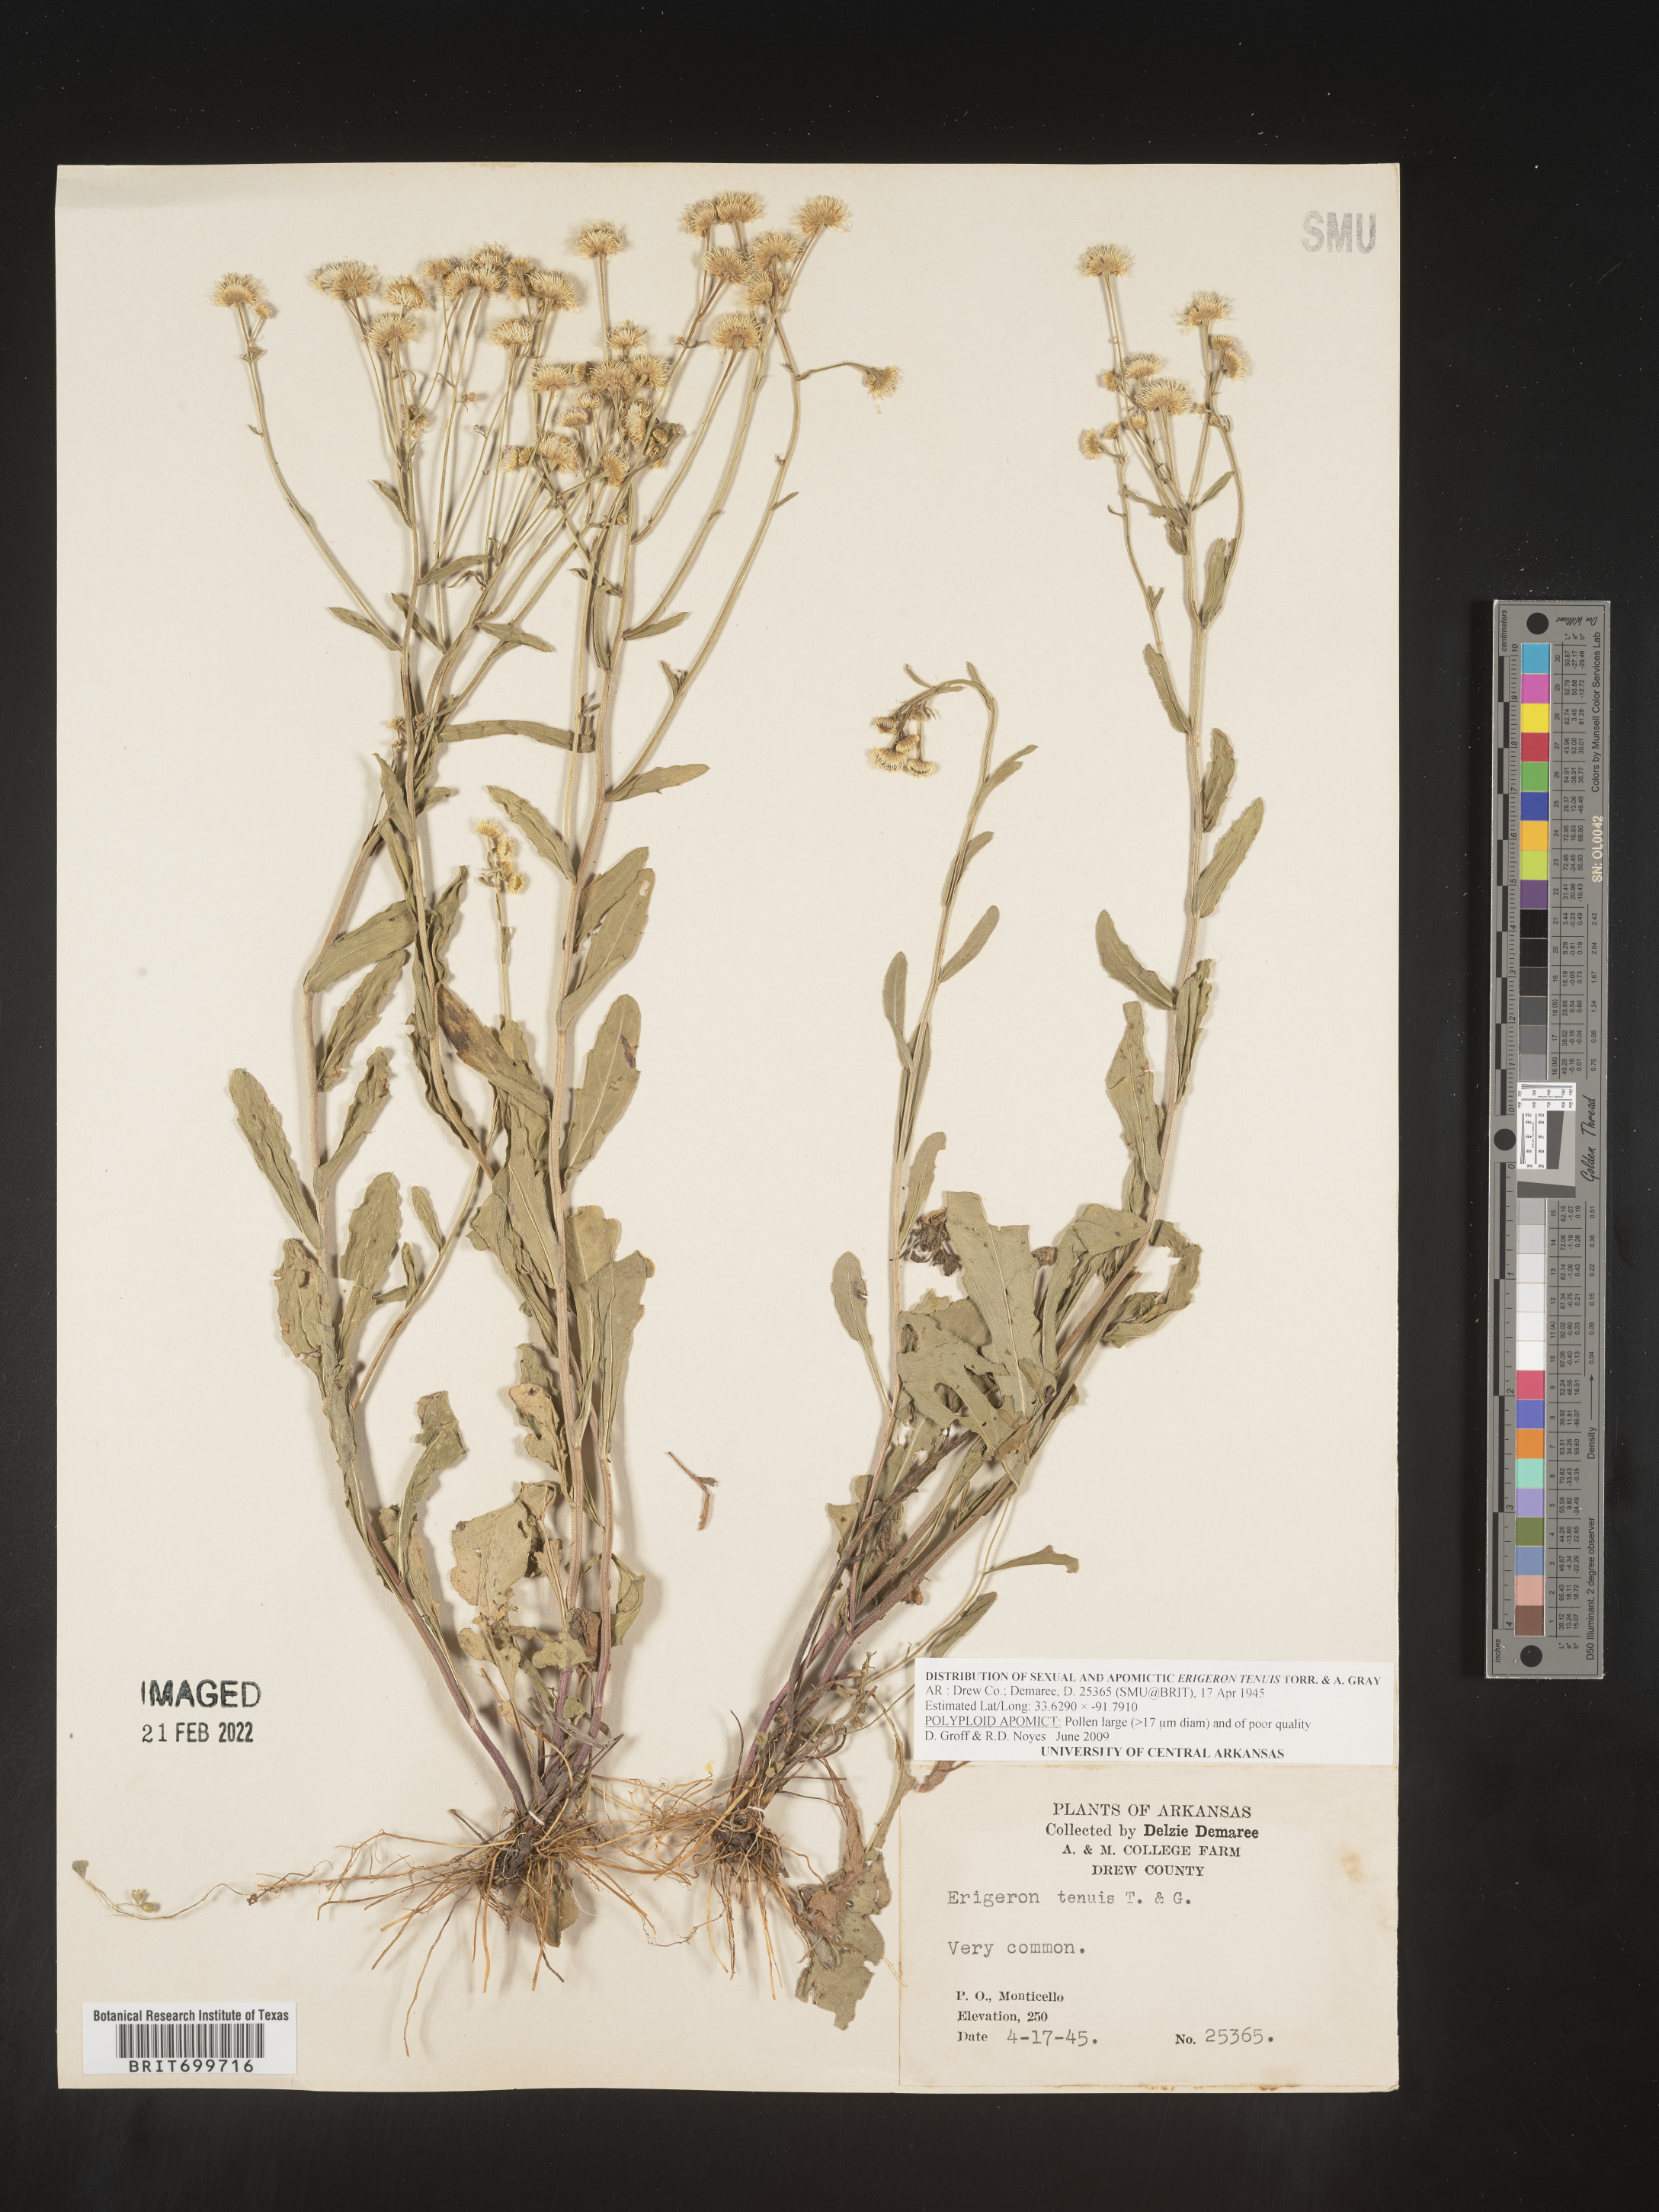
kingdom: Plantae
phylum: Tracheophyta
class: Magnoliopsida
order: Asterales
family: Asteraceae
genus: Erigeron
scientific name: Erigeron tenuis
